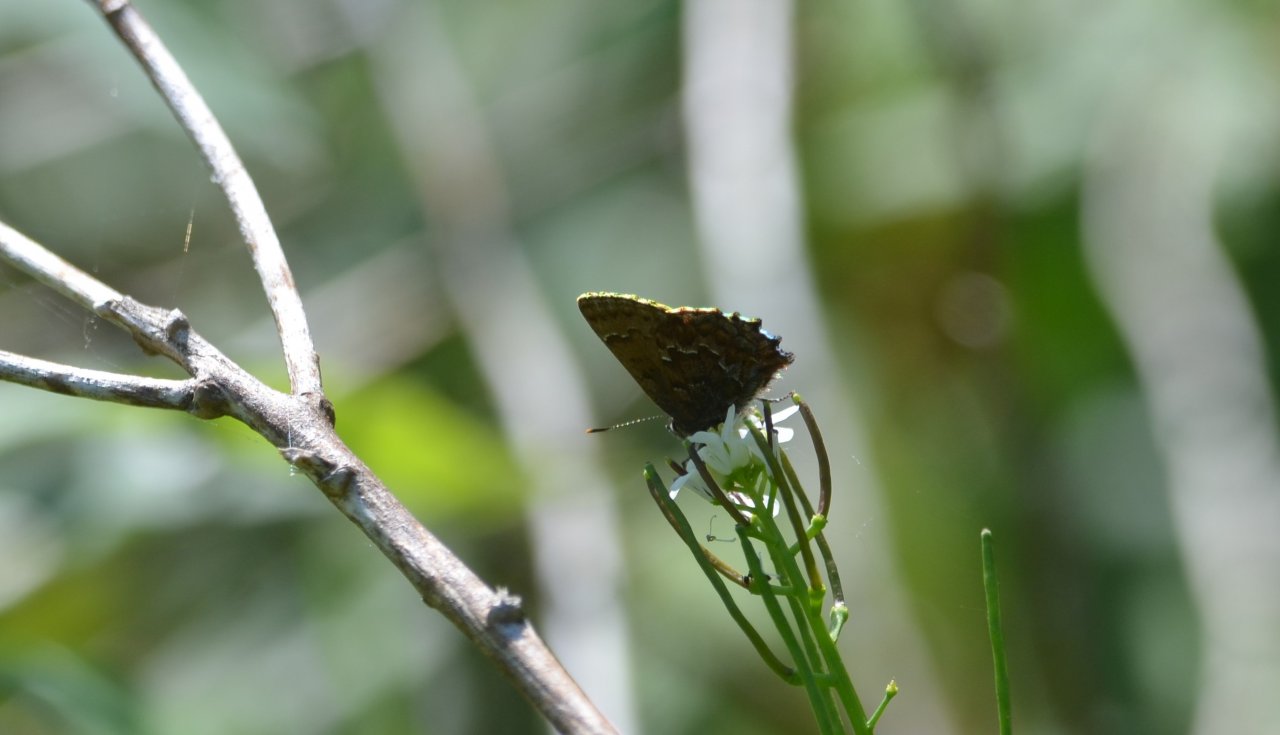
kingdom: Animalia
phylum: Arthropoda
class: Insecta
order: Lepidoptera
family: Lycaenidae
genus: Incisalia
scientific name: Incisalia niphon
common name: Eastern Pine Elfin
